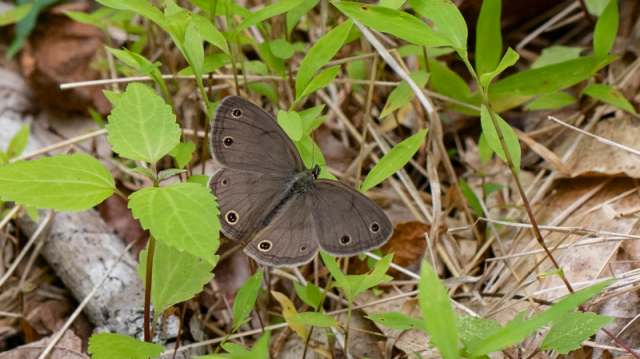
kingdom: Animalia
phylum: Arthropoda
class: Insecta
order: Lepidoptera
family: Nymphalidae
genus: Euptychia
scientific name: Euptychia cymela
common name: Little Wood Satyr
